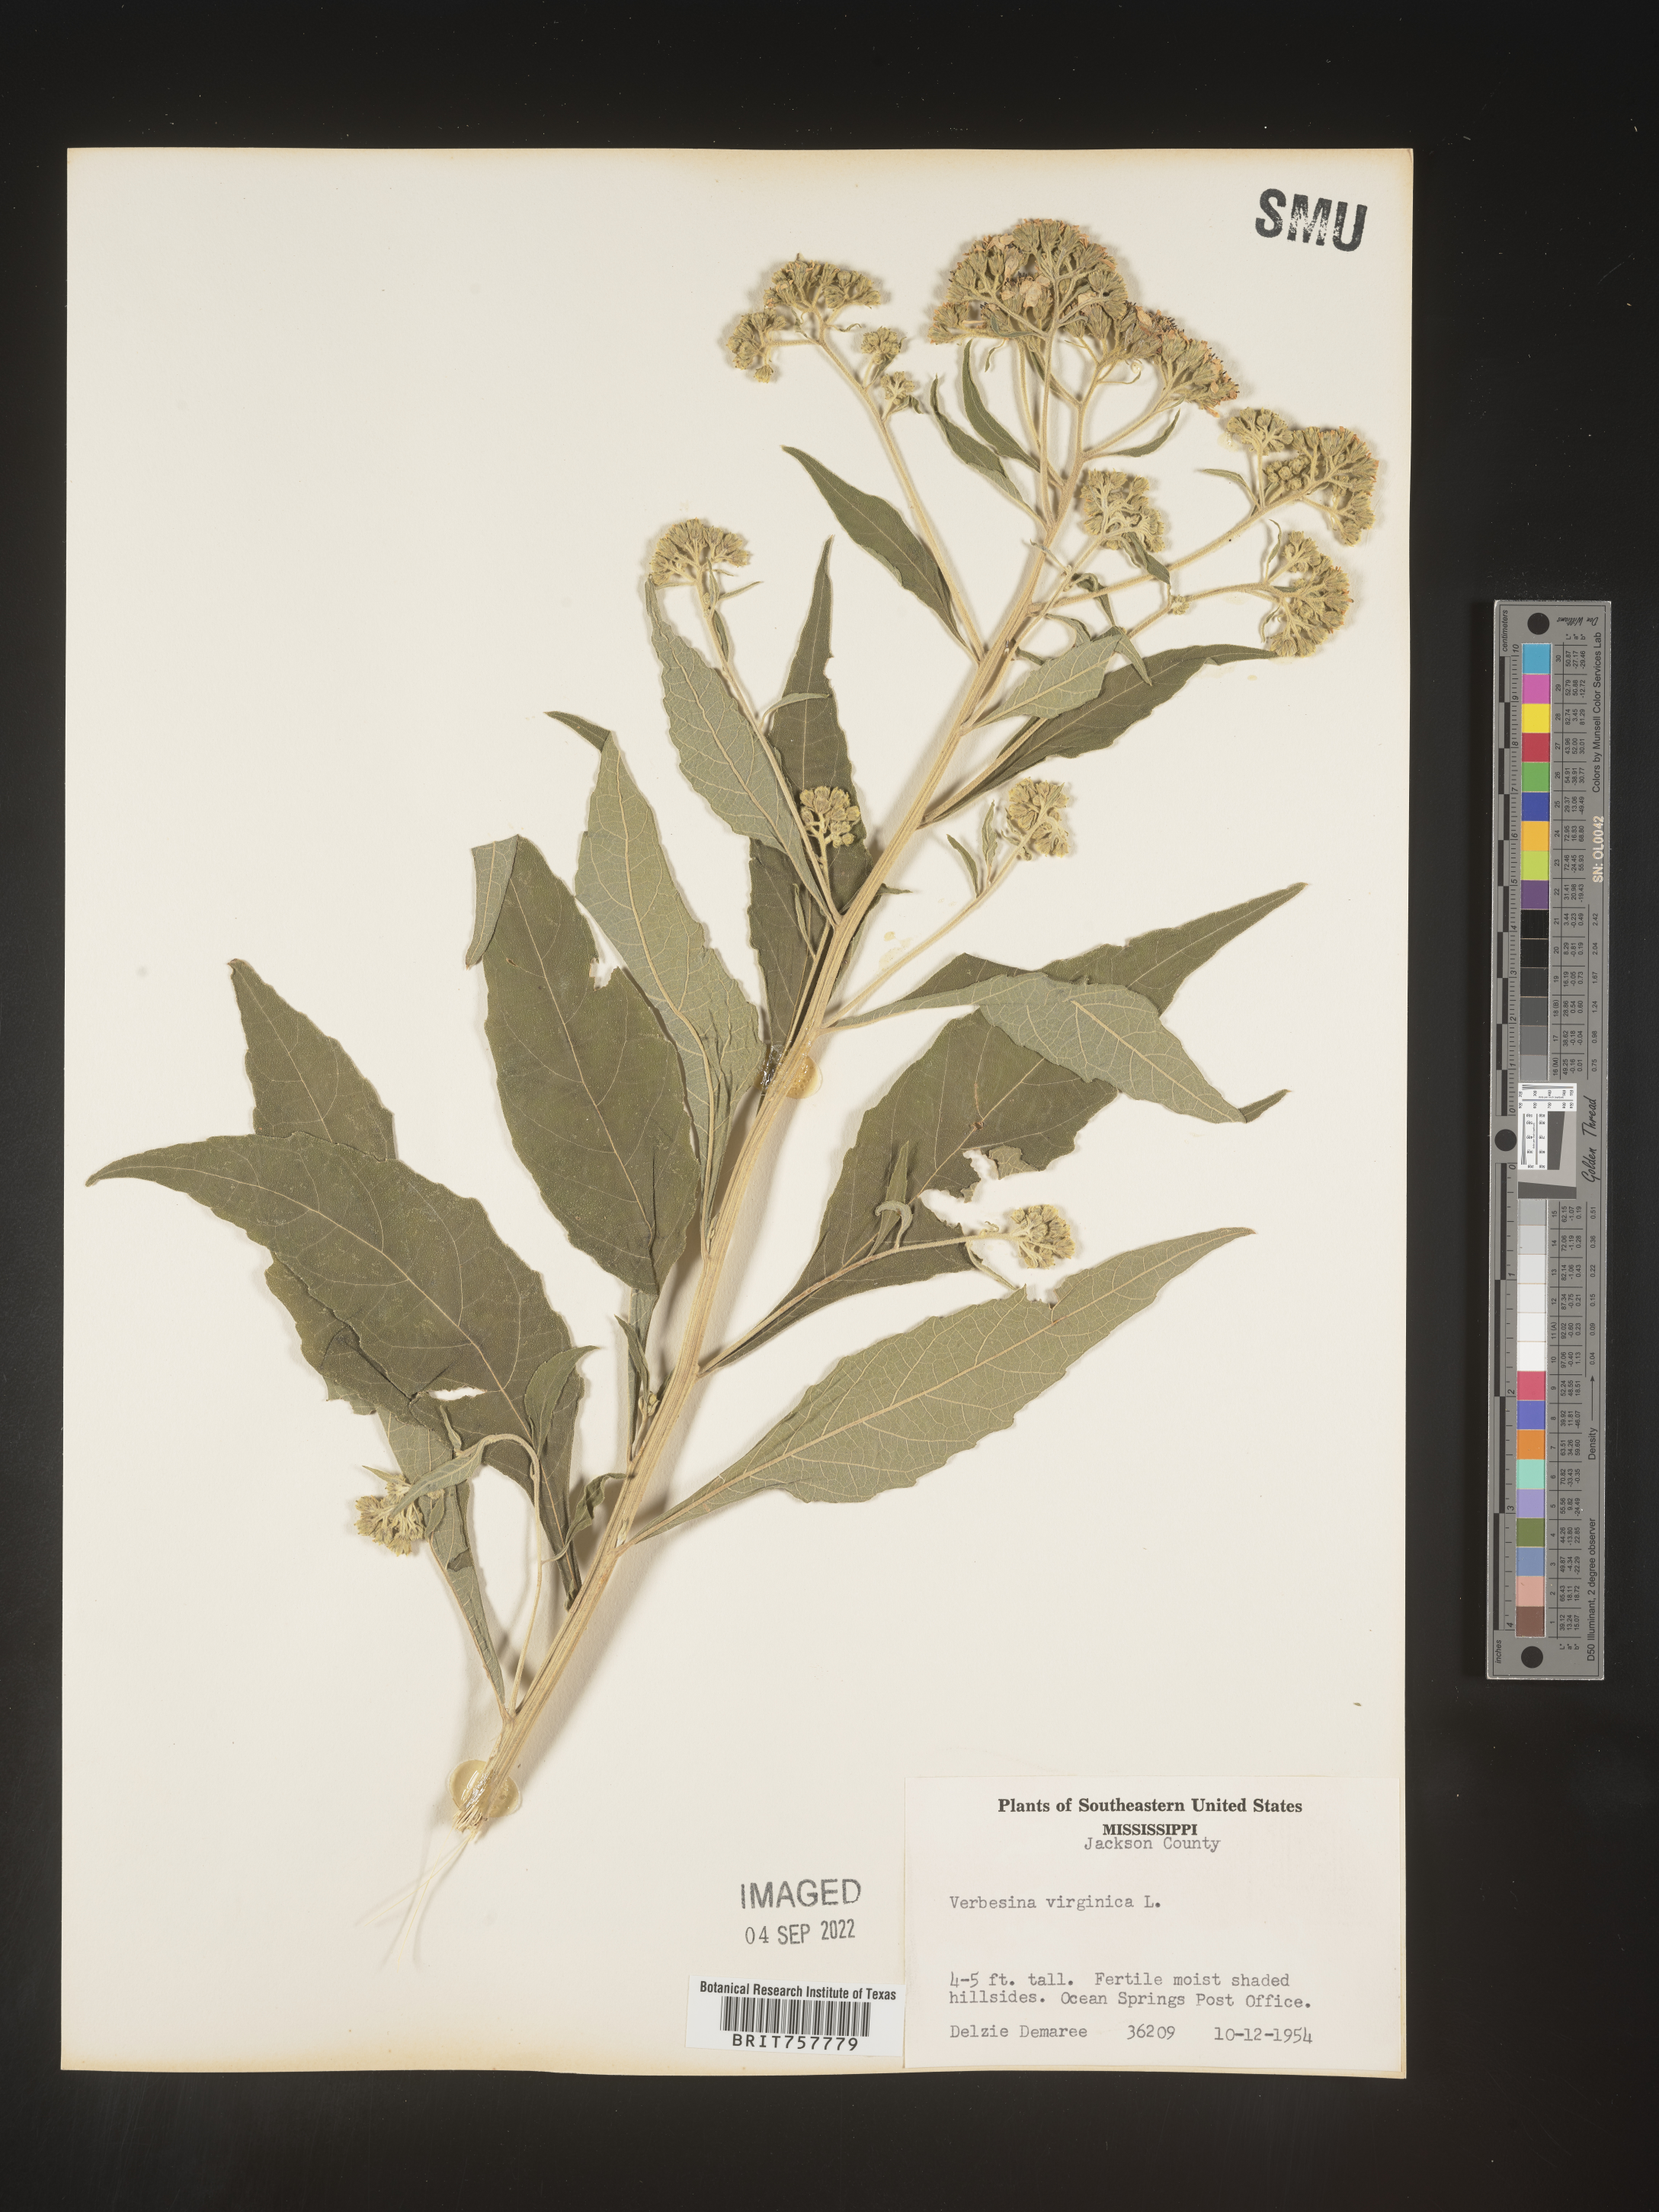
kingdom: Plantae
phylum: Tracheophyta
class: Magnoliopsida
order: Asterales
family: Asteraceae
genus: Verbesina
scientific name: Verbesina virginica
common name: Frostweed
